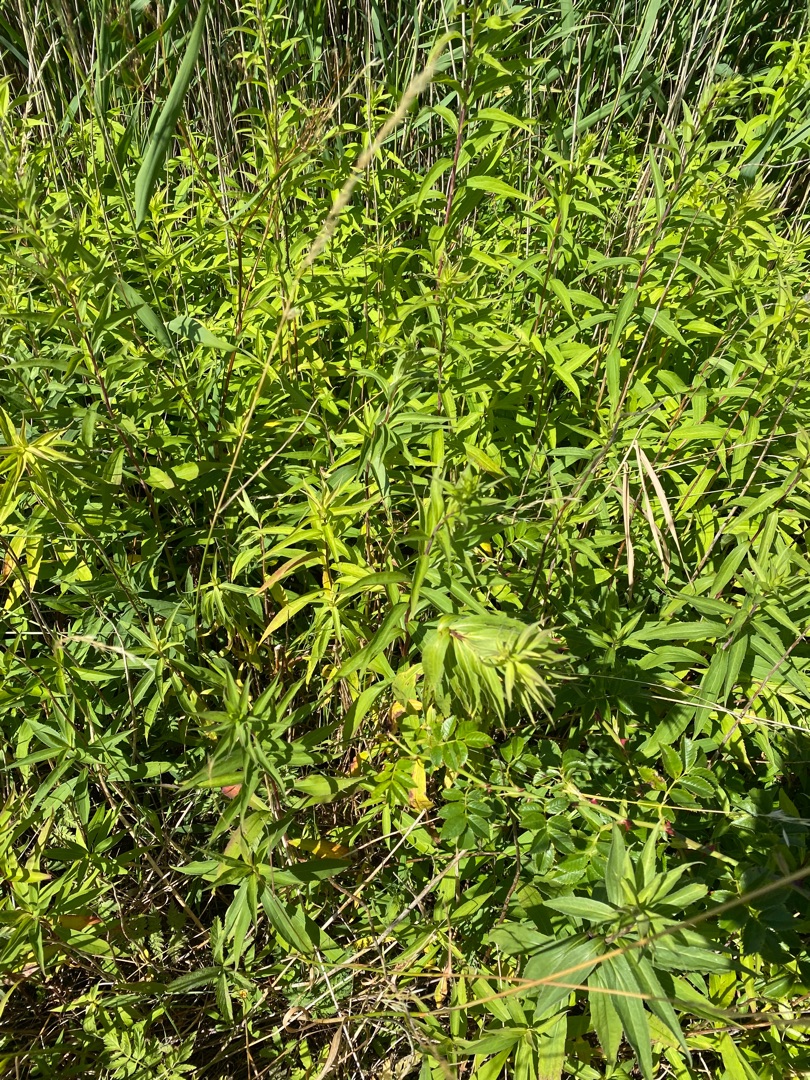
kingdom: Plantae
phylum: Tracheophyta
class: Magnoliopsida
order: Asterales
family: Asteraceae
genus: Solidago
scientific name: Solidago gigantea
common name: Sildig gyldenris
